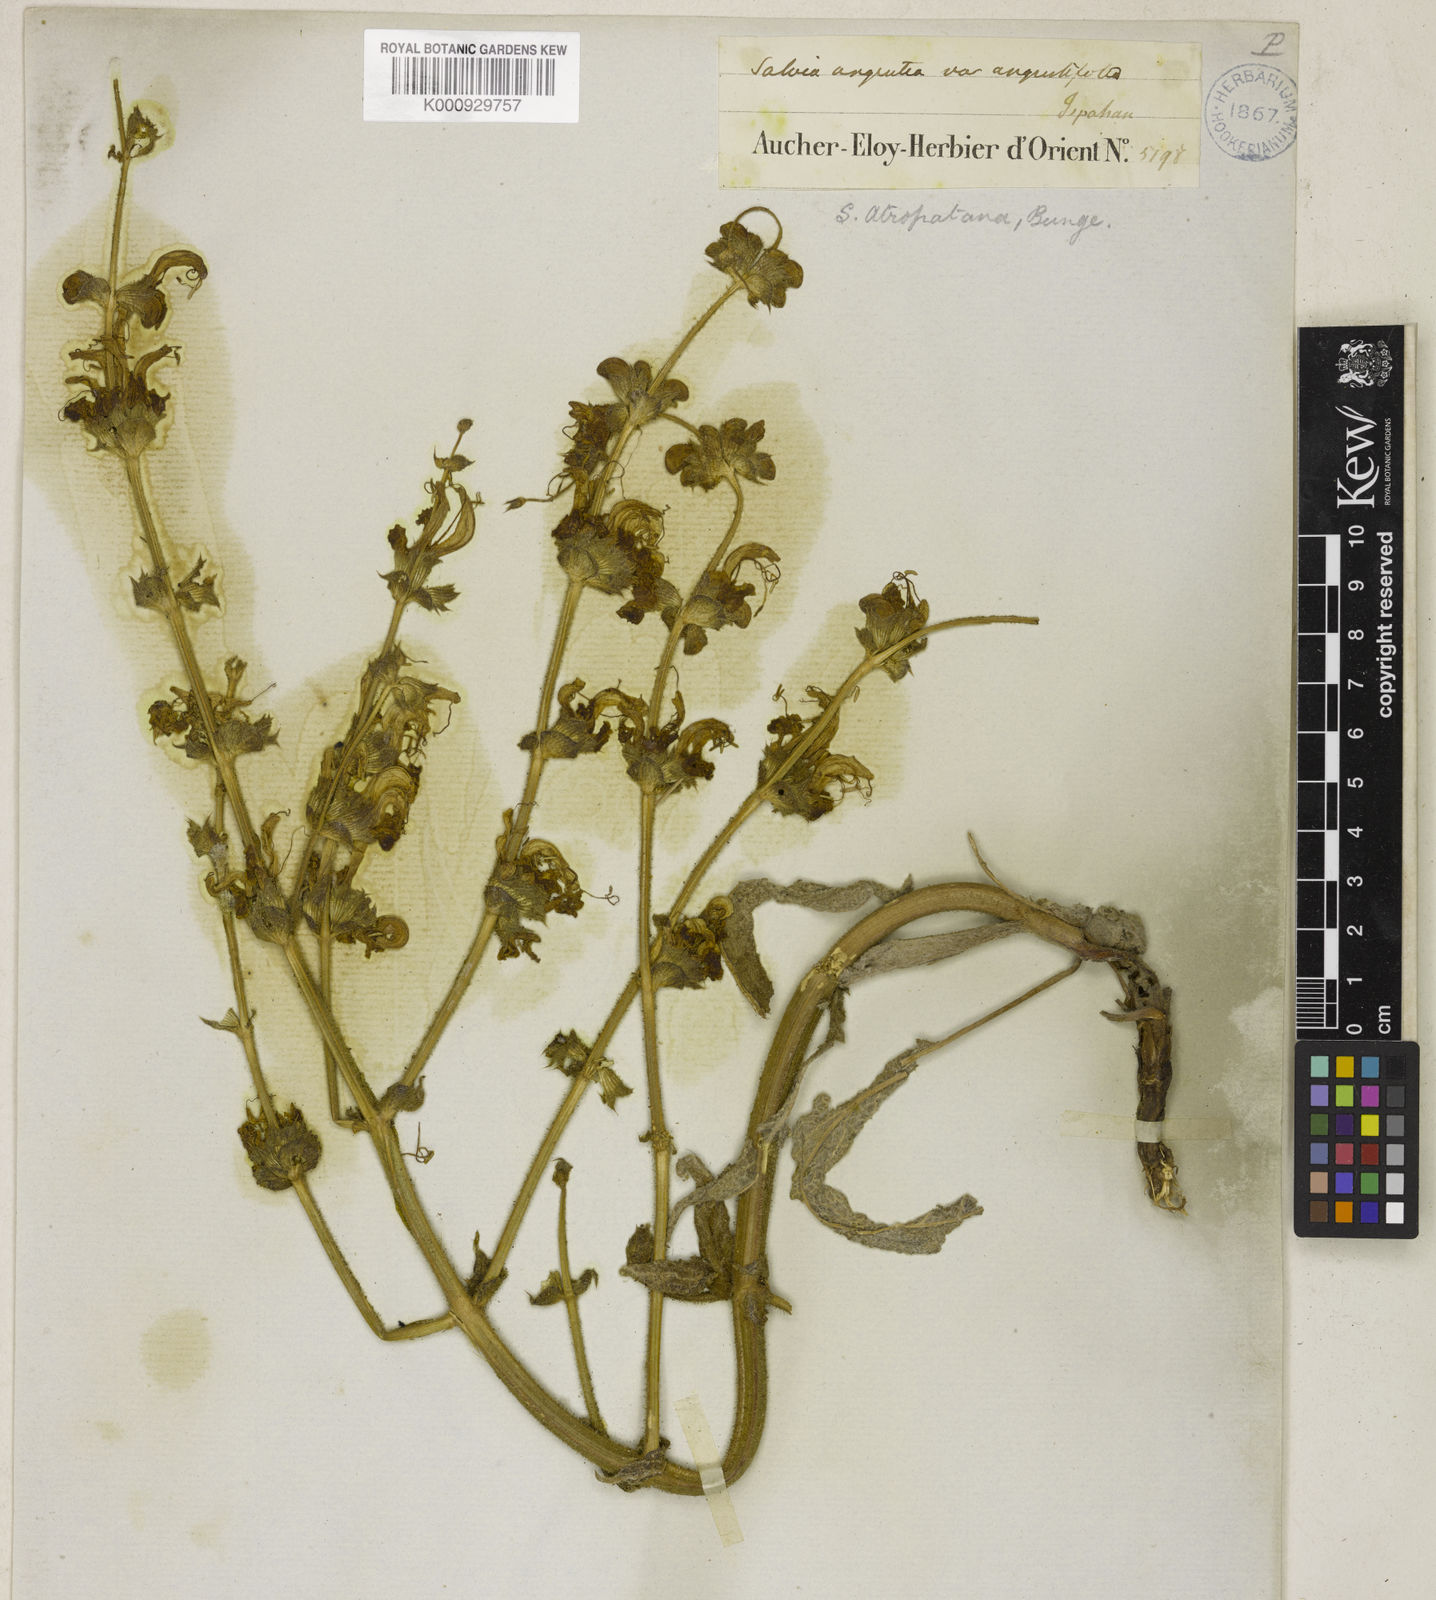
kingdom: Plantae
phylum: Tracheophyta
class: Magnoliopsida
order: Lamiales
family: Lamiaceae
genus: Salvia
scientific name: Salvia atropatana
